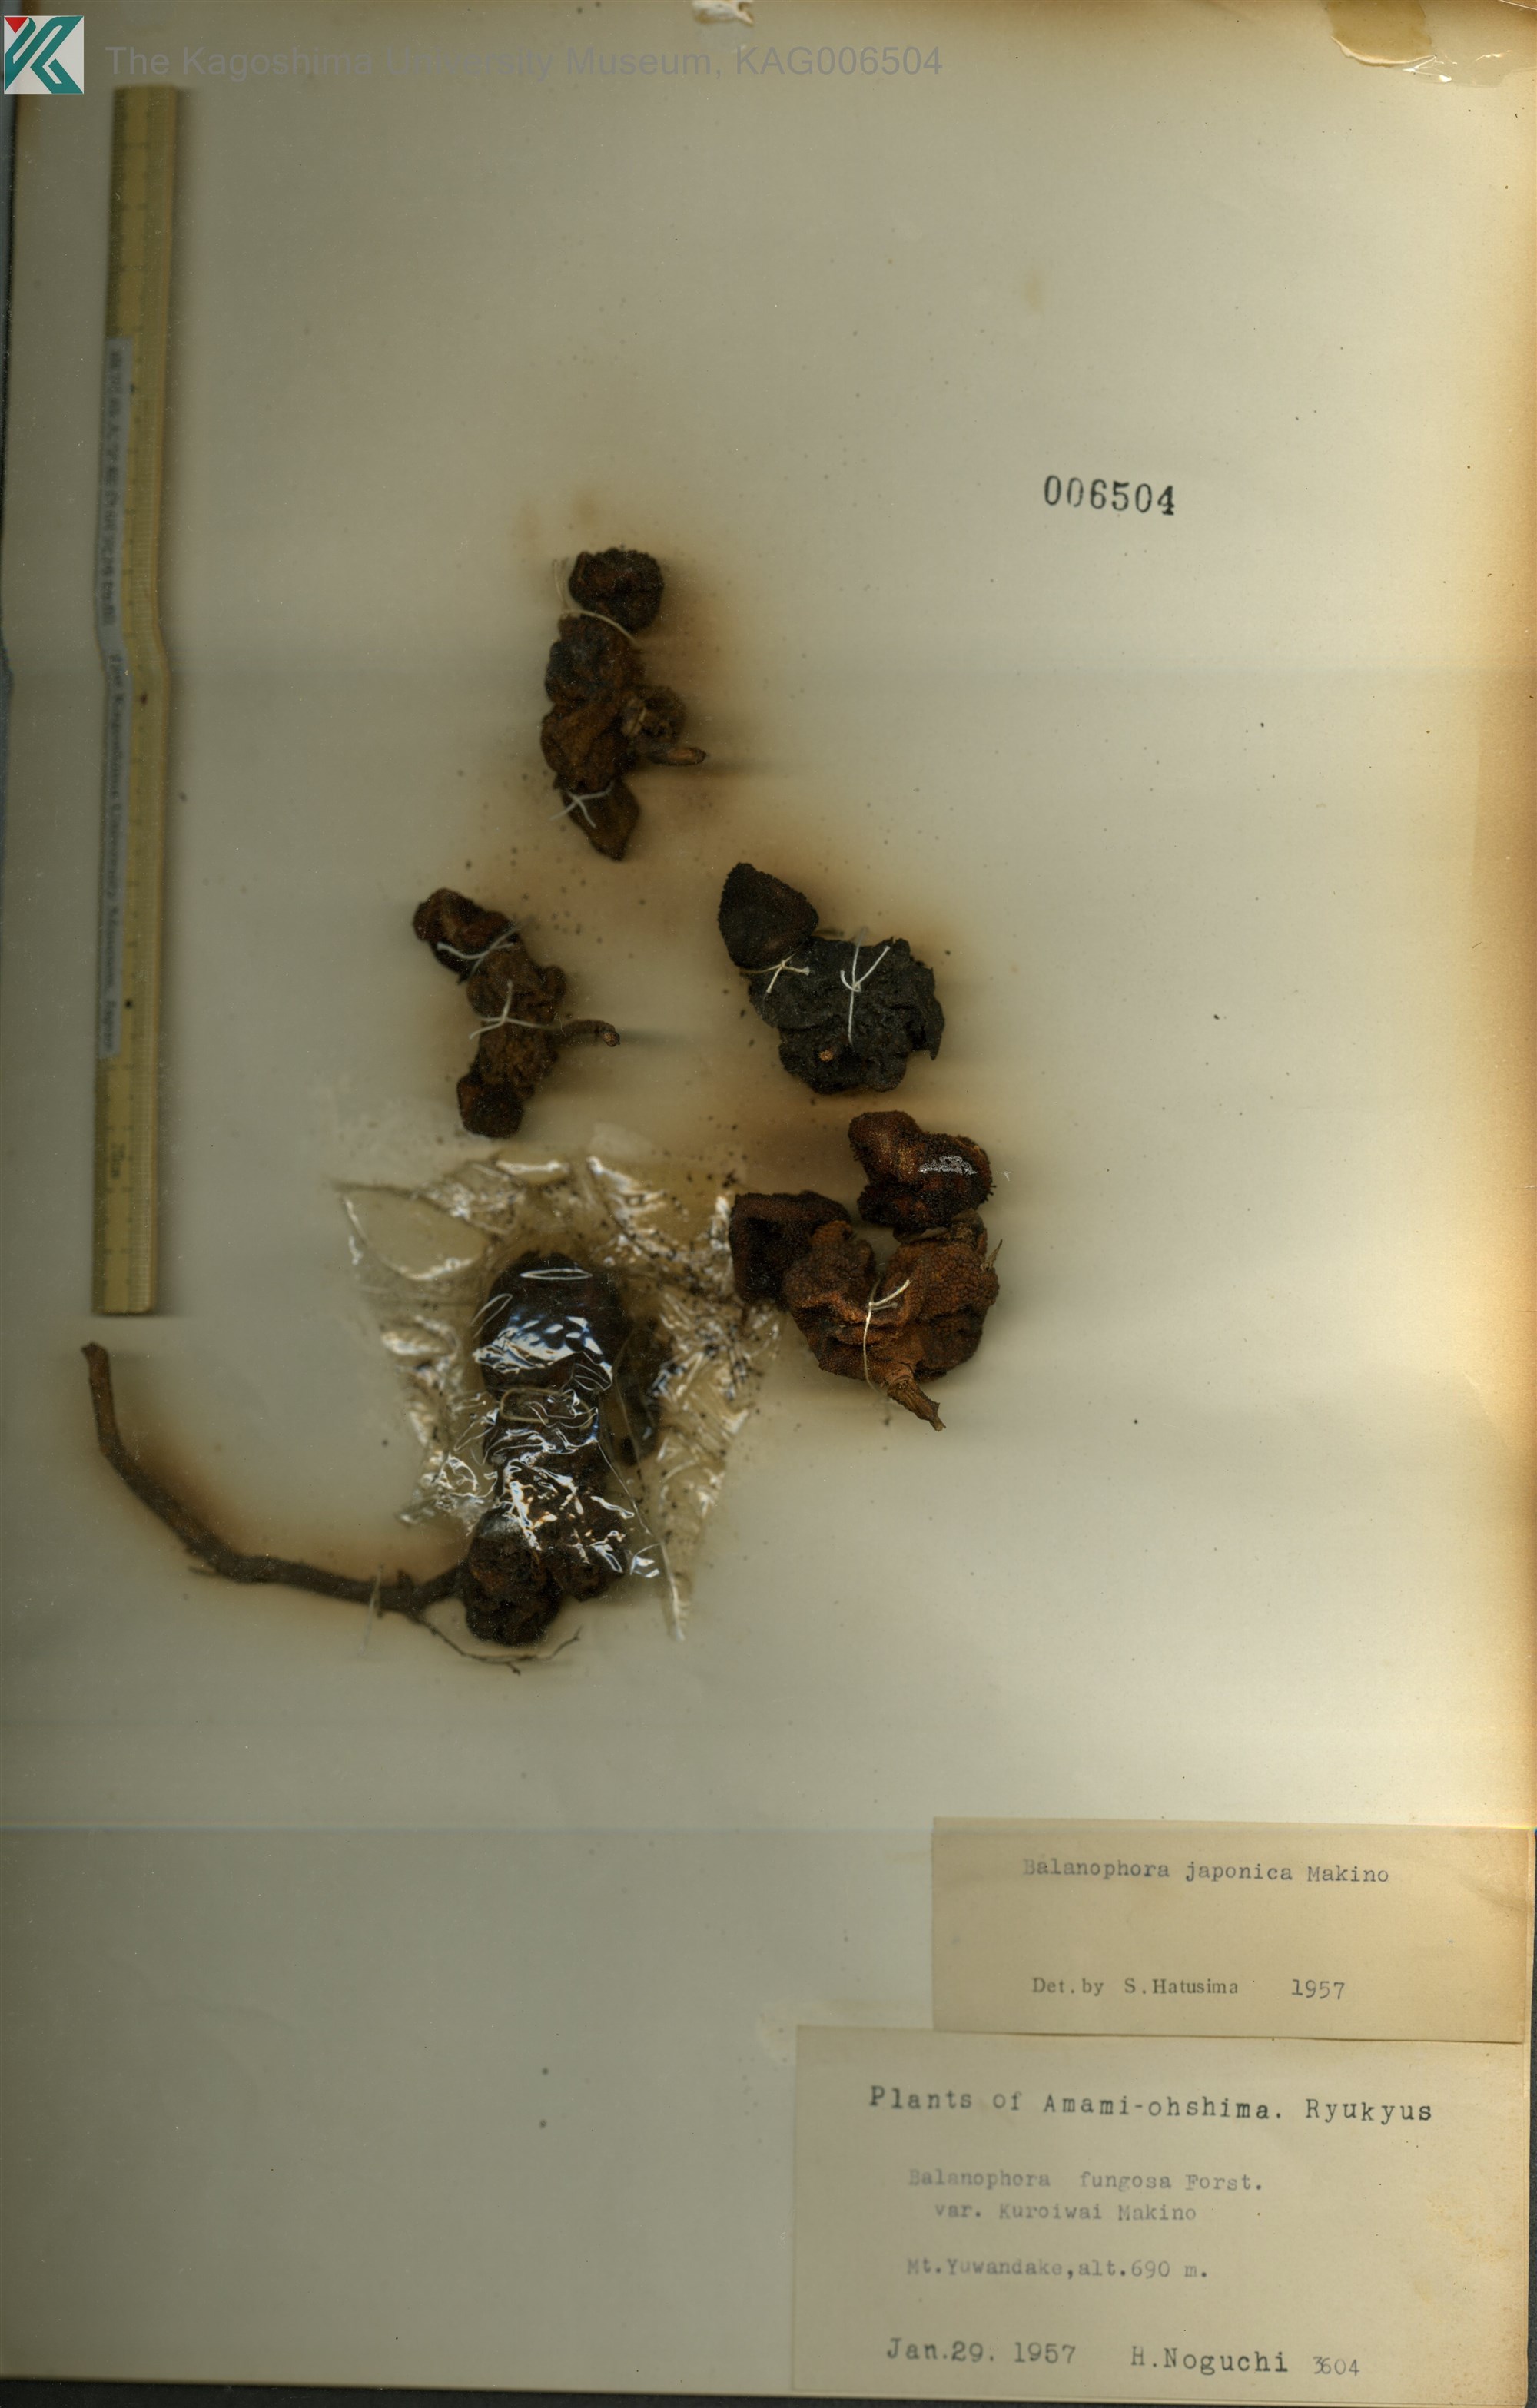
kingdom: Plantae
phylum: Tracheophyta
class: Magnoliopsida
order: Santalales
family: Balanophoraceae
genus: Balanophora
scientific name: Balanophora japonica
